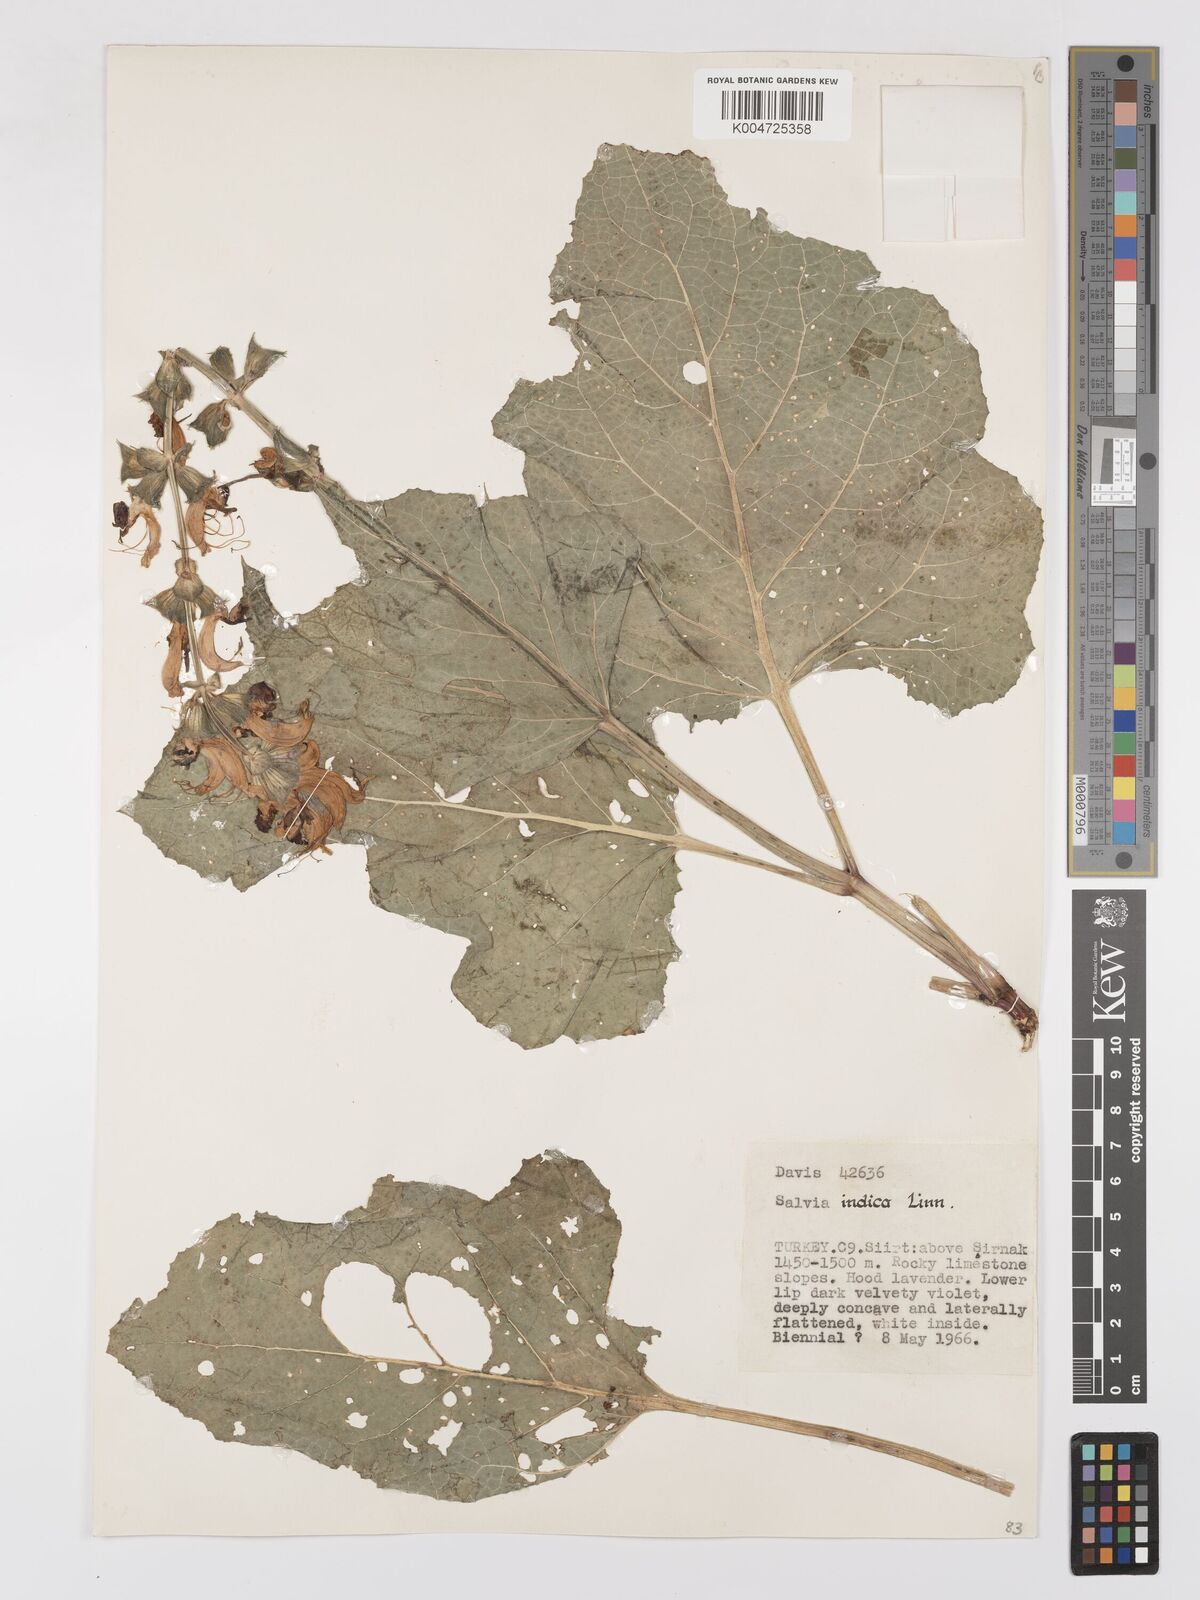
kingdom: Plantae
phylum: Tracheophyta
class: Magnoliopsida
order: Lamiales
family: Lamiaceae
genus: Salvia
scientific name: Salvia indica
